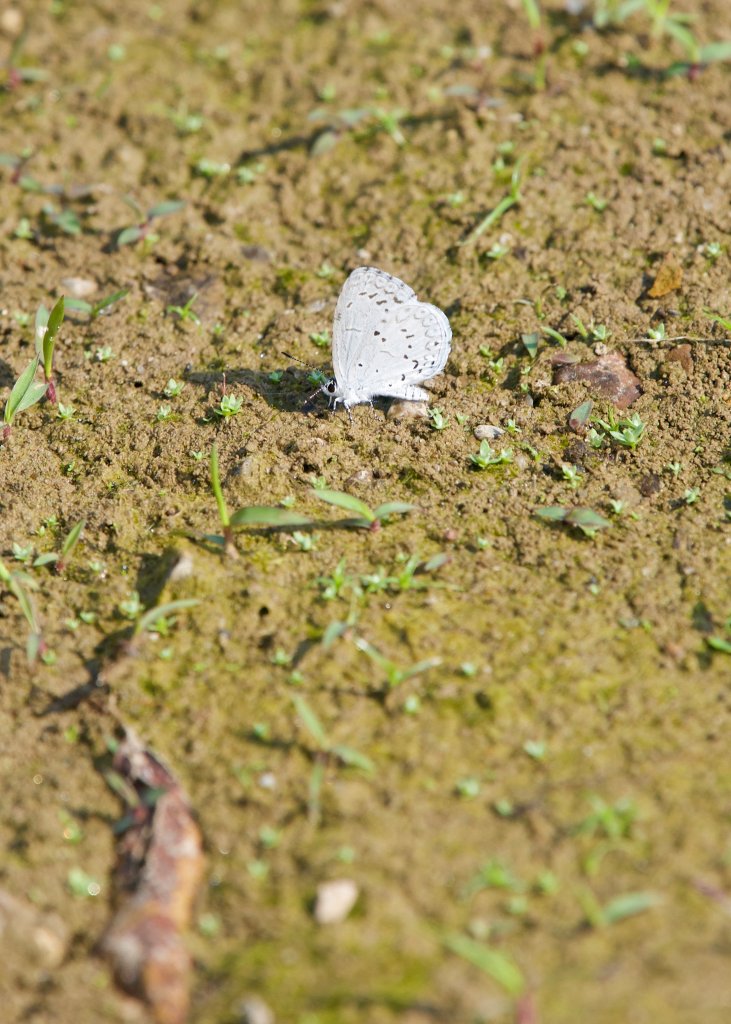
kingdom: Animalia
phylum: Arthropoda
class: Insecta
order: Lepidoptera
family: Lycaenidae
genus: Cyaniris
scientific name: Cyaniris neglecta
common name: Summer Azure
